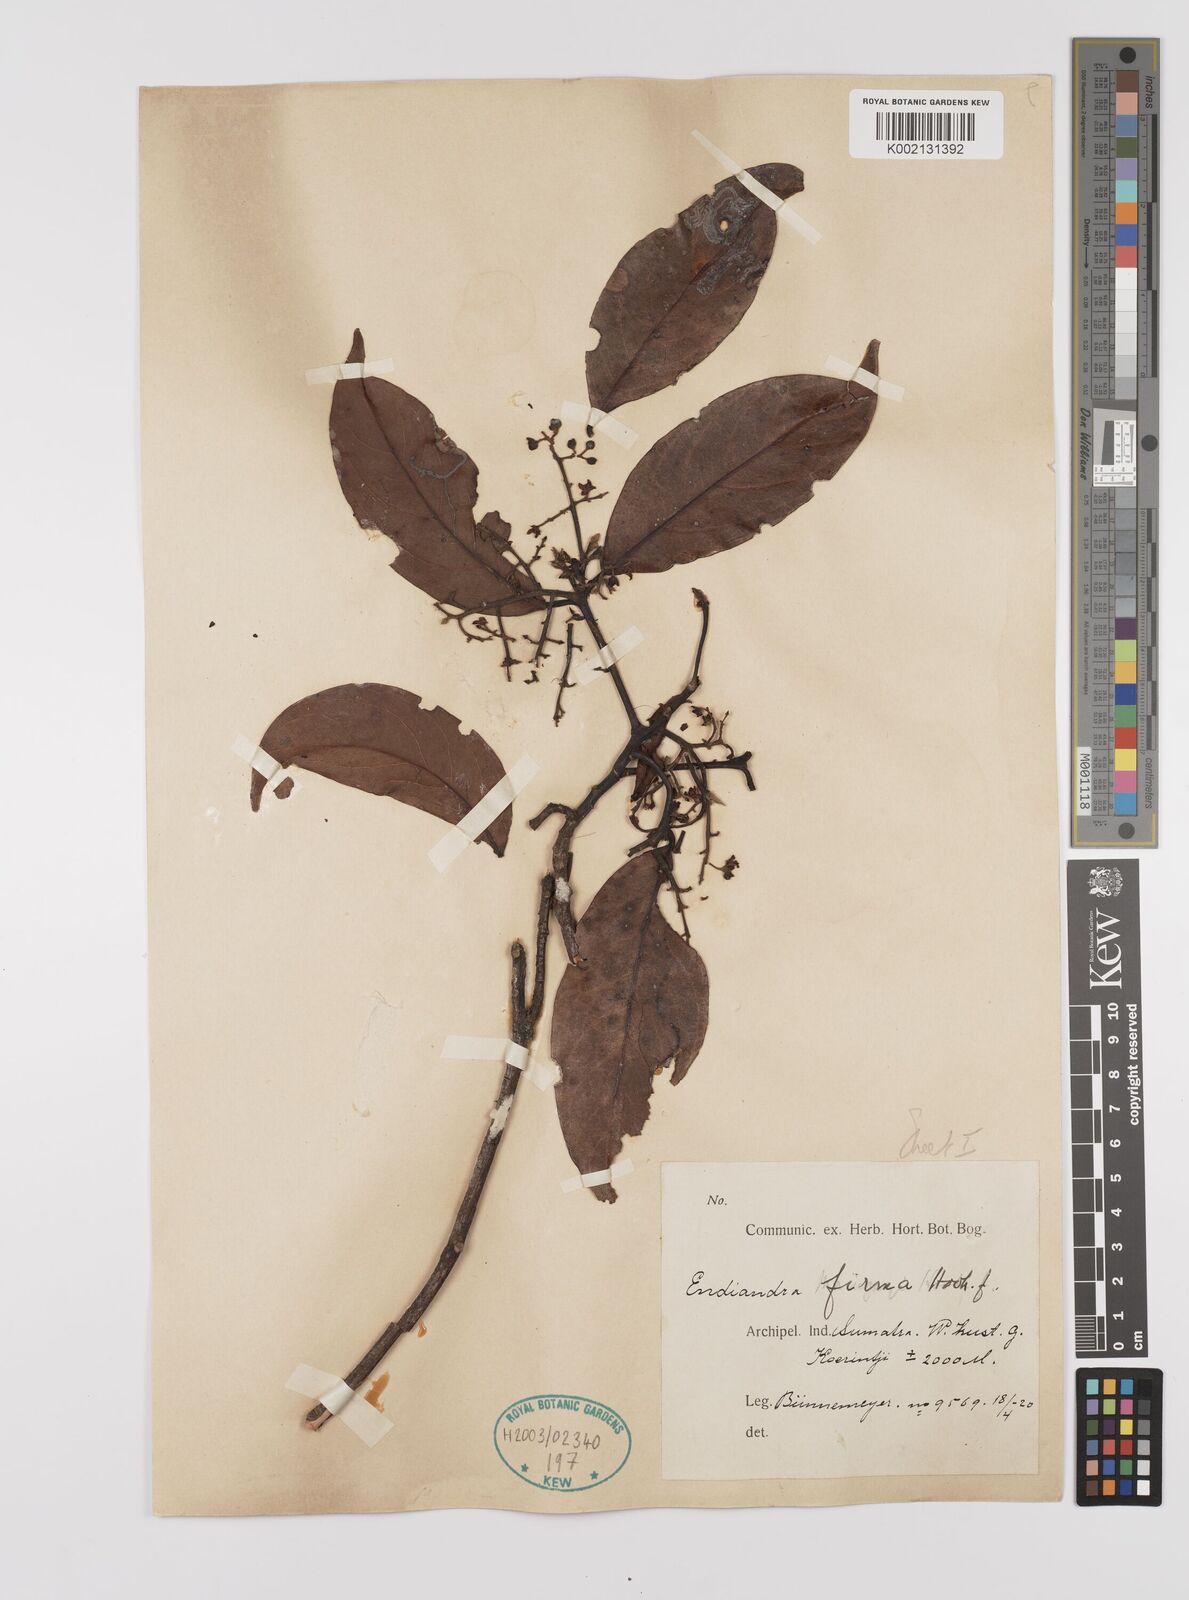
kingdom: Plantae
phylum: Tracheophyta
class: Magnoliopsida
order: Laurales
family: Lauraceae
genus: Endiandra
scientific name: Endiandra firma
